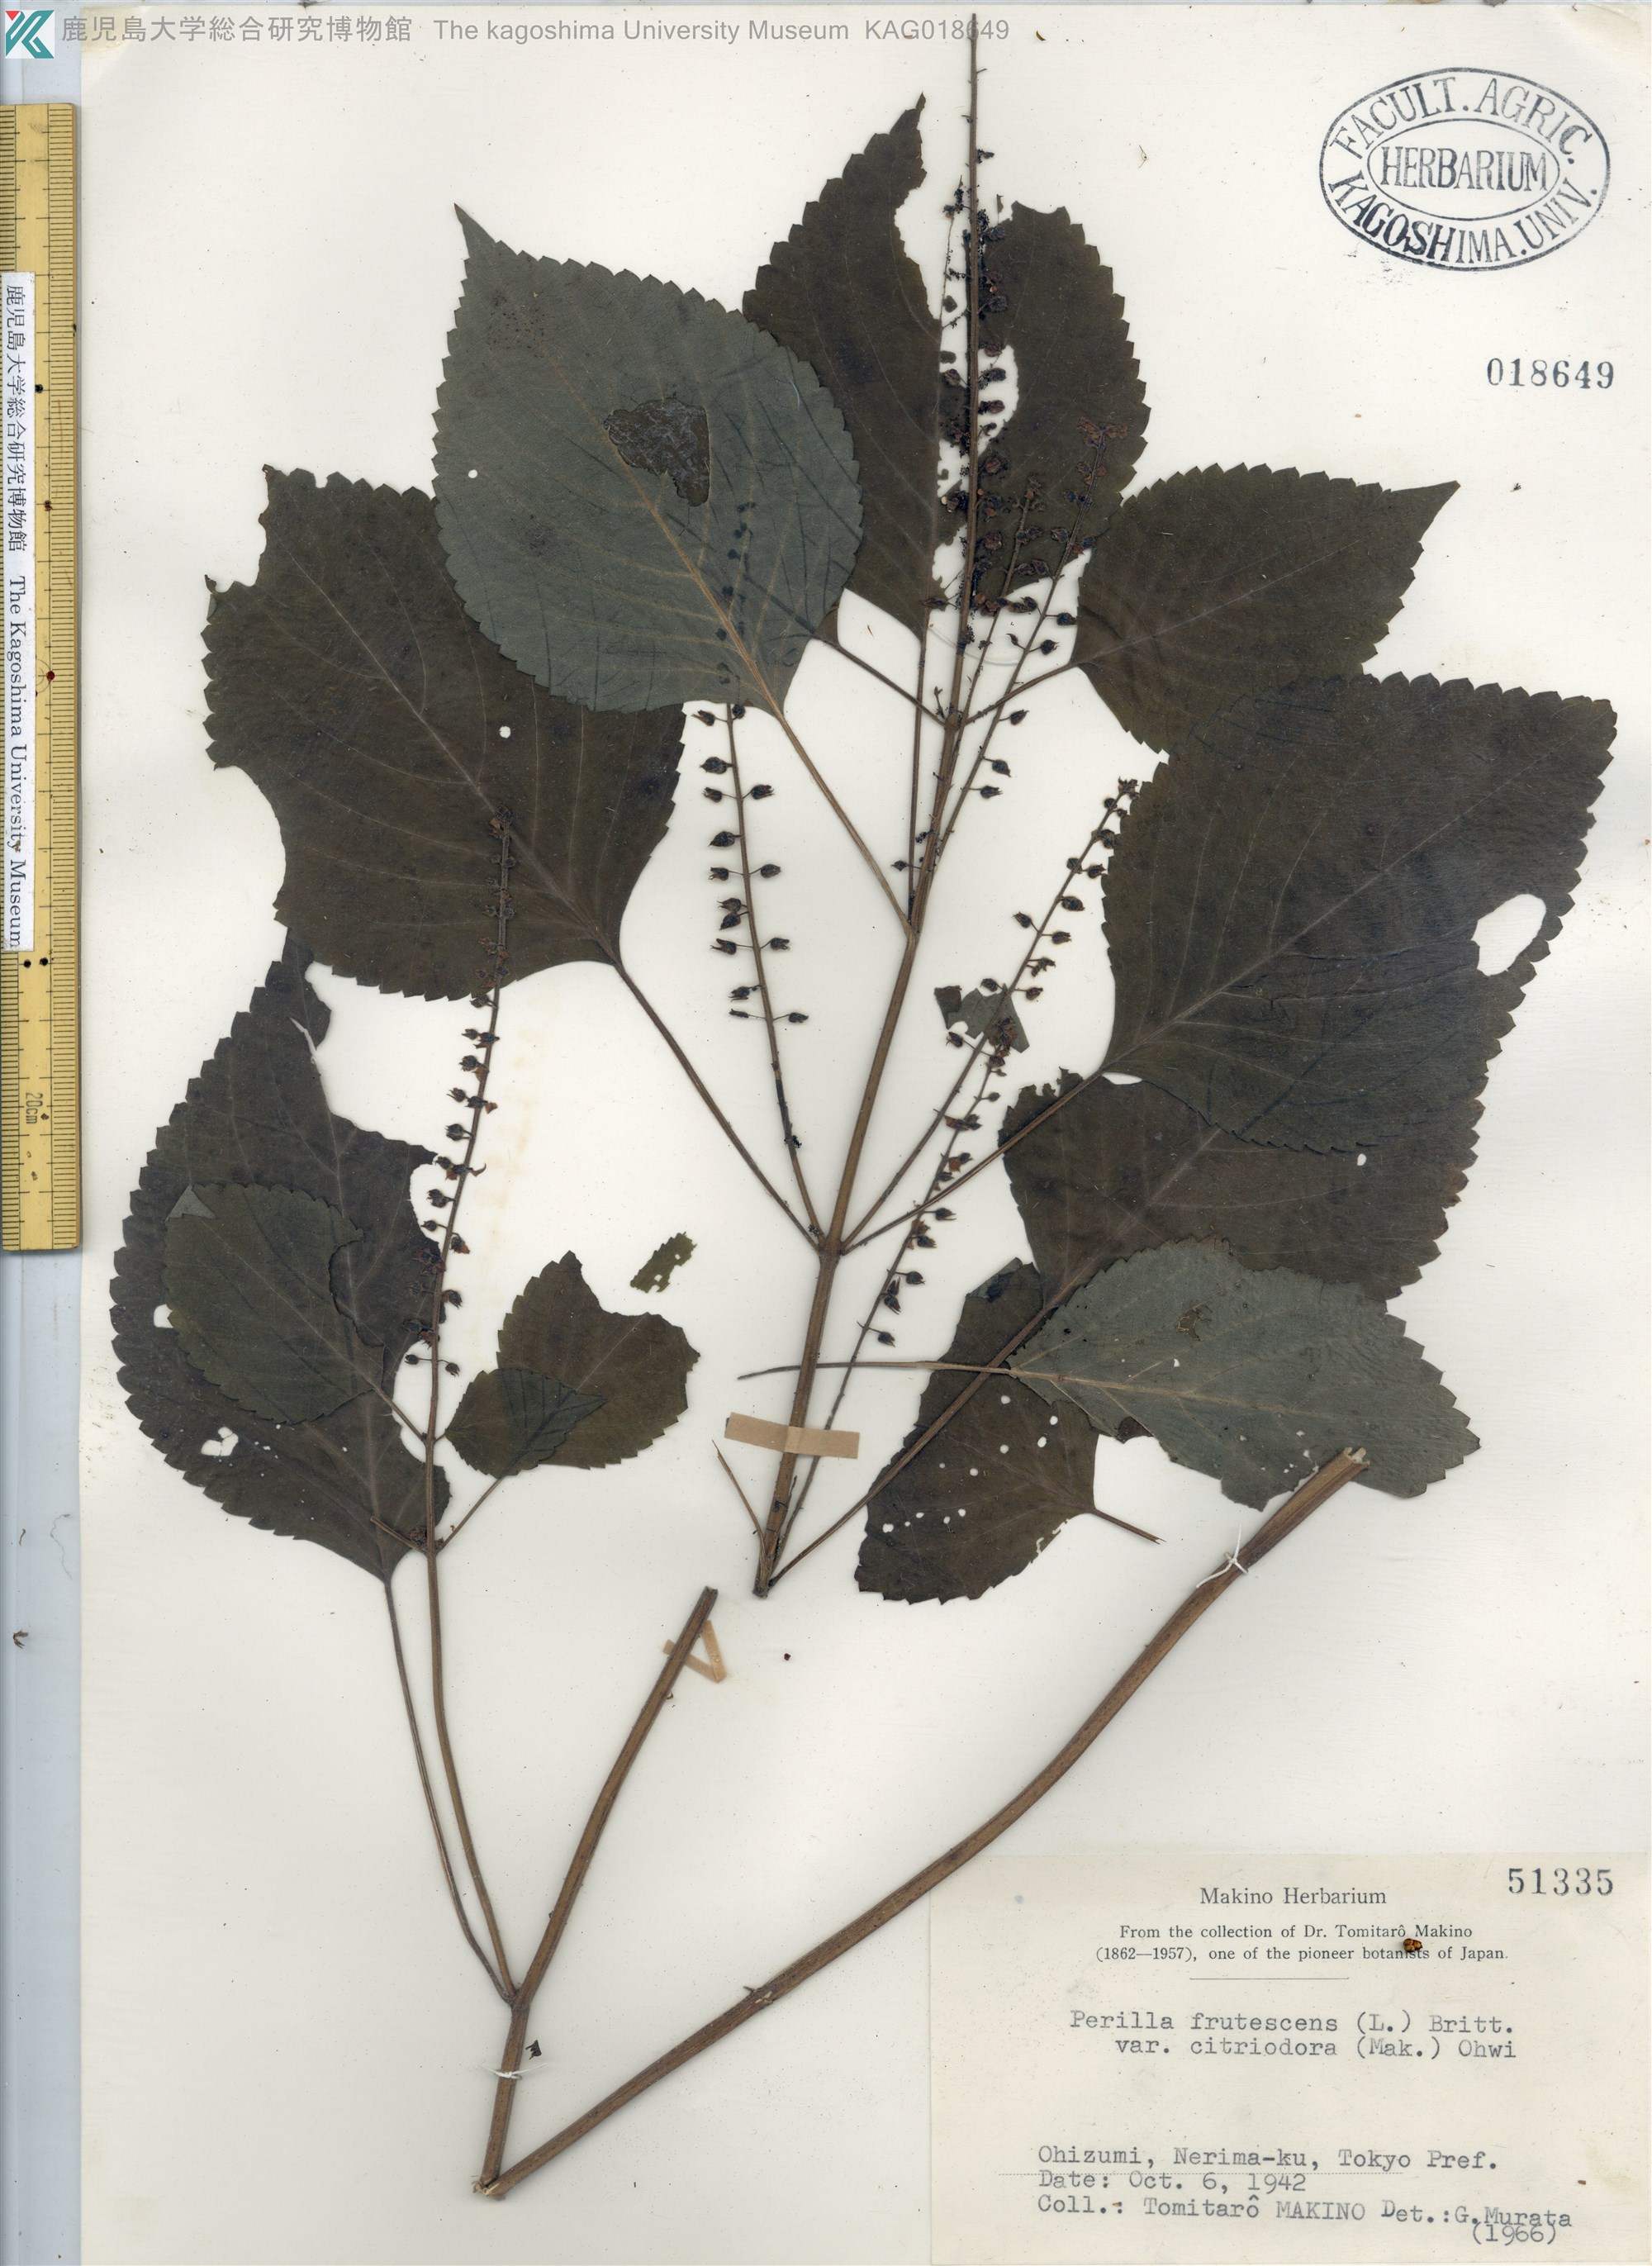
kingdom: Plantae
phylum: Tracheophyta
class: Magnoliopsida
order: Lamiales
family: Lamiaceae
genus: Perilla
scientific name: Perilla frutescens
